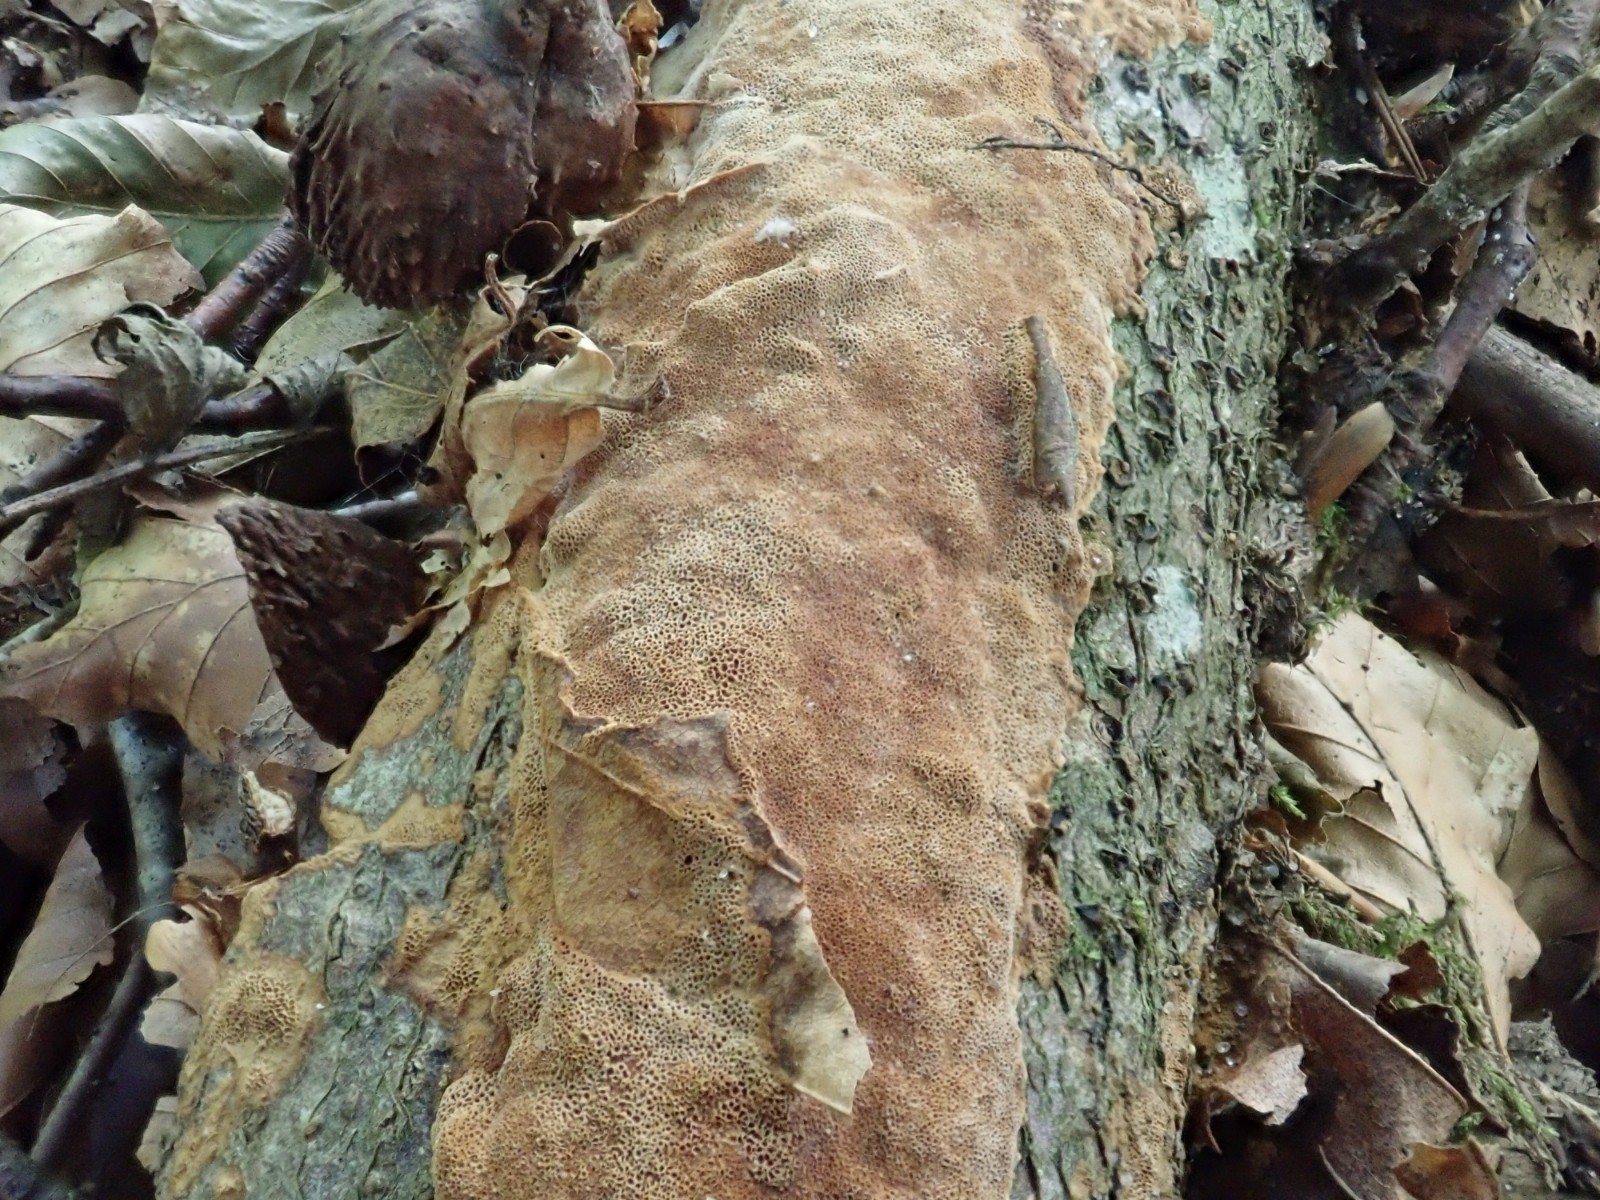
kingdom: Fungi
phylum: Basidiomycota
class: Agaricomycetes
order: Hymenochaetales
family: Hymenochaetaceae
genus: Fuscoporia
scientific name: Fuscoporia ferrea
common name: skorpe-ildporesvamp
